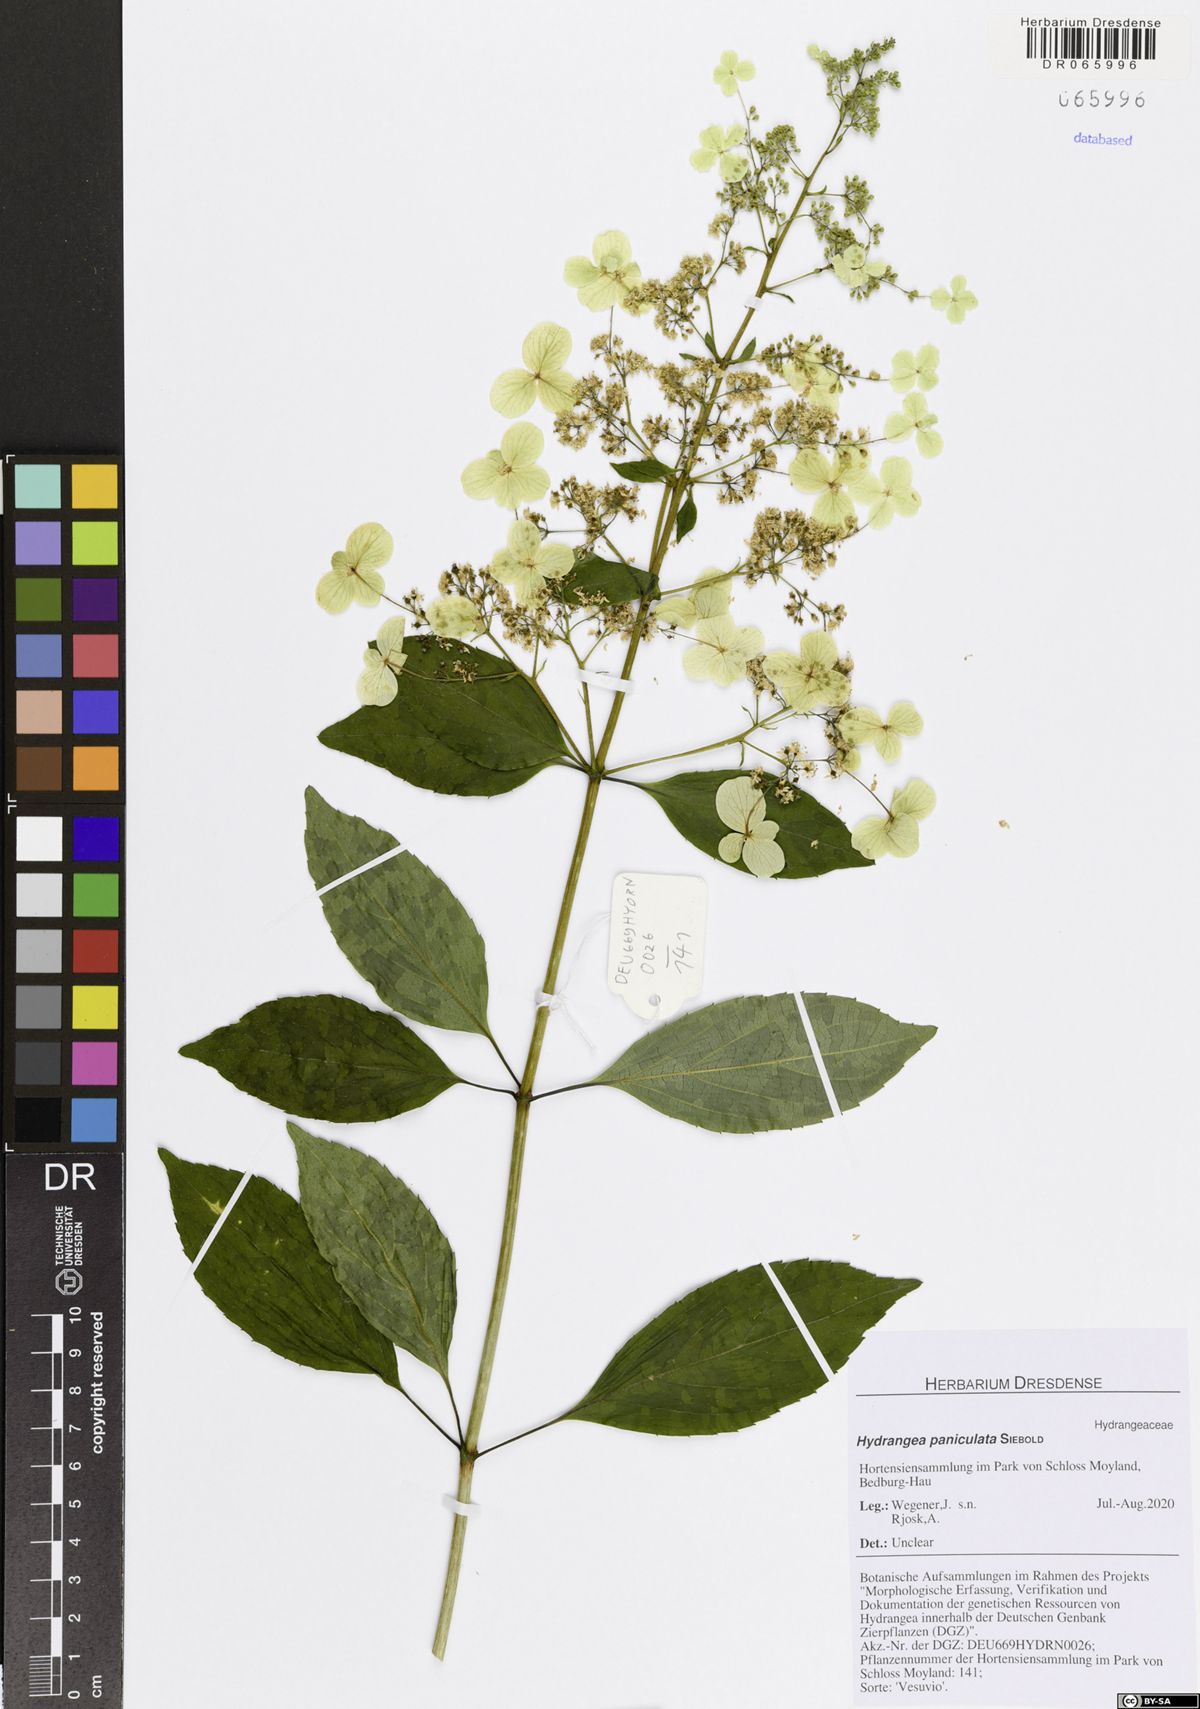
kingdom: Plantae
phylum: Tracheophyta
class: Magnoliopsida
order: Cornales
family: Hydrangeaceae
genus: Hydrangea
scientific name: Hydrangea paniculata
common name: Panicled hydrangea
